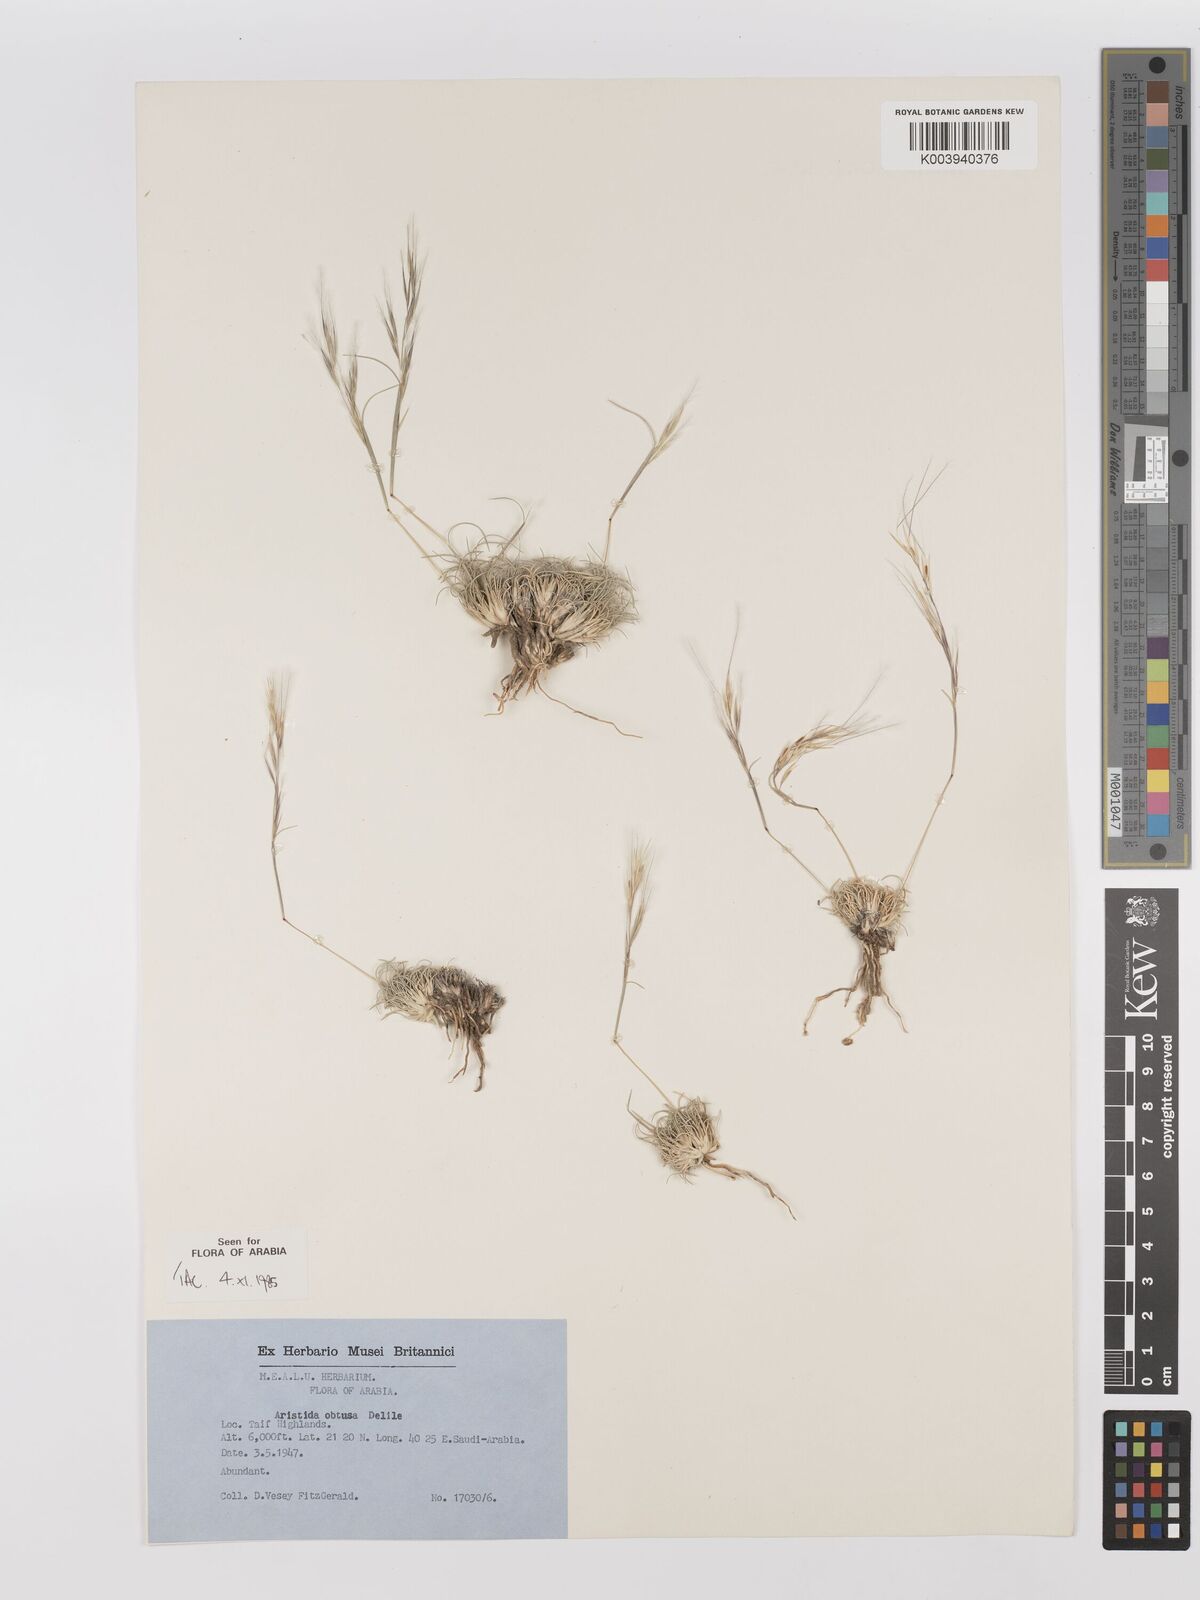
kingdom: Plantae
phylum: Tracheophyta
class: Liliopsida
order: Poales
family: Poaceae
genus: Stipagrostis
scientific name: Stipagrostis obtusa
